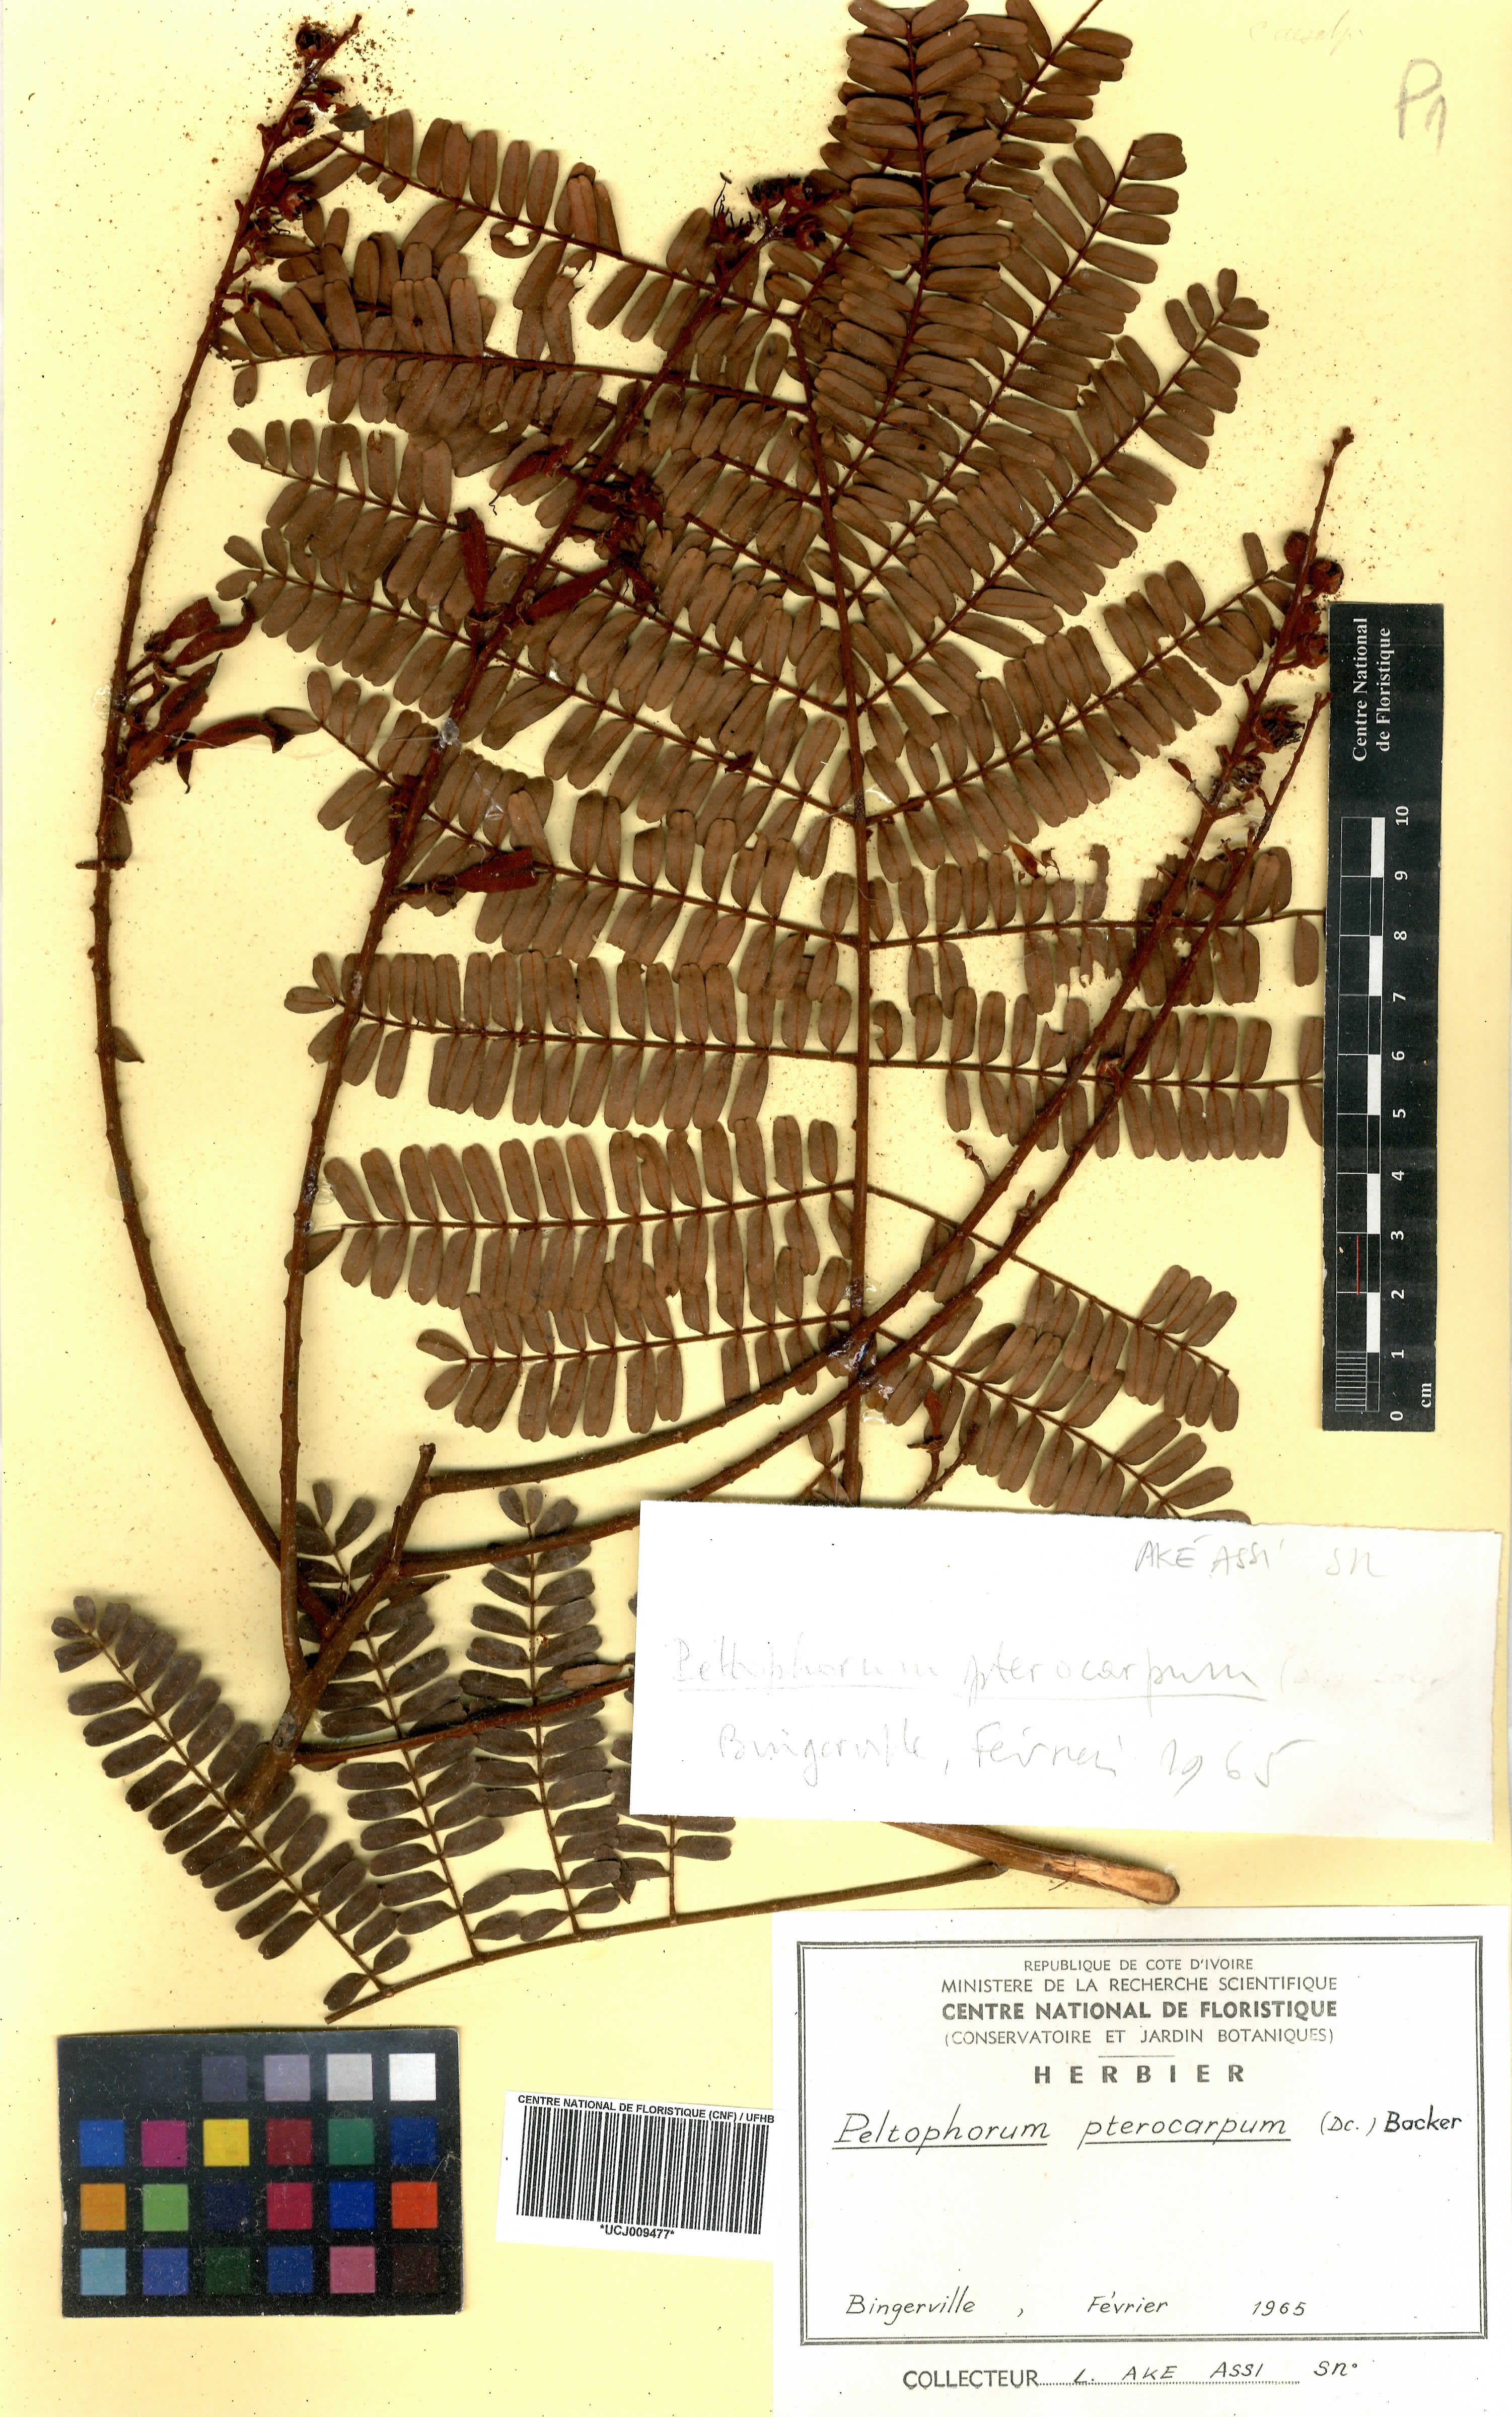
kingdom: Plantae
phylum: Tracheophyta
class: Magnoliopsida
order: Fabales
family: Fabaceae
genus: Peltophorum
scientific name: Peltophorum pterocarpum
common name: Yellow flame
